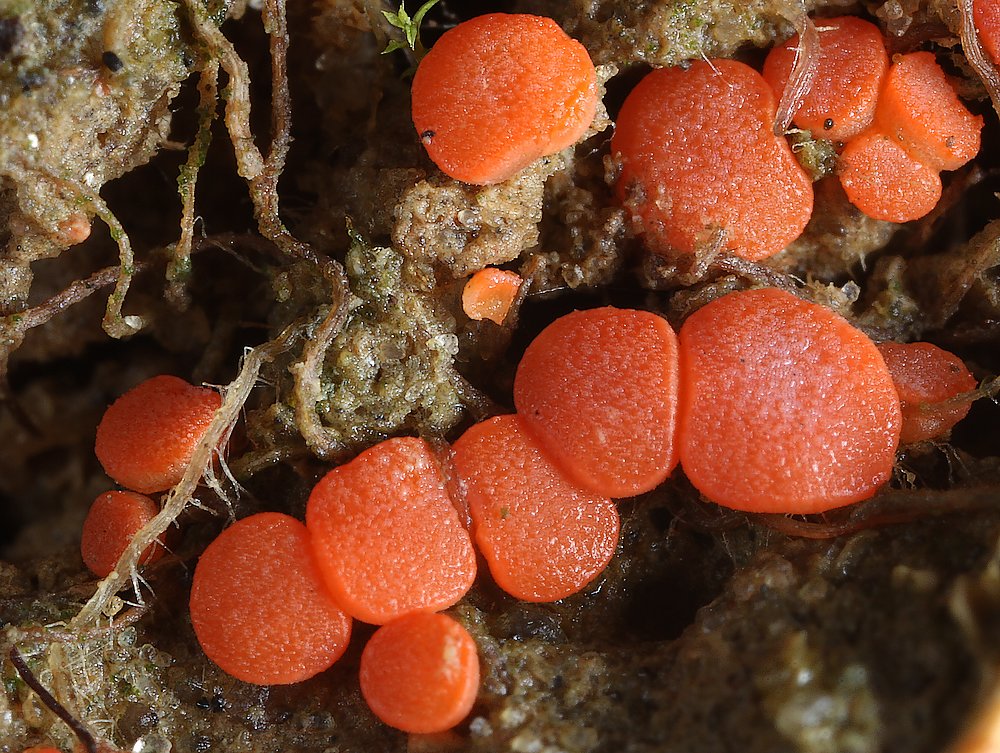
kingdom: Fungi
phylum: Ascomycota
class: Pezizomycetes
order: Pezizales
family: Pulvinulaceae
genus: Pulvinula
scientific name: Pulvinula convexella
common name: stor pudebæger
